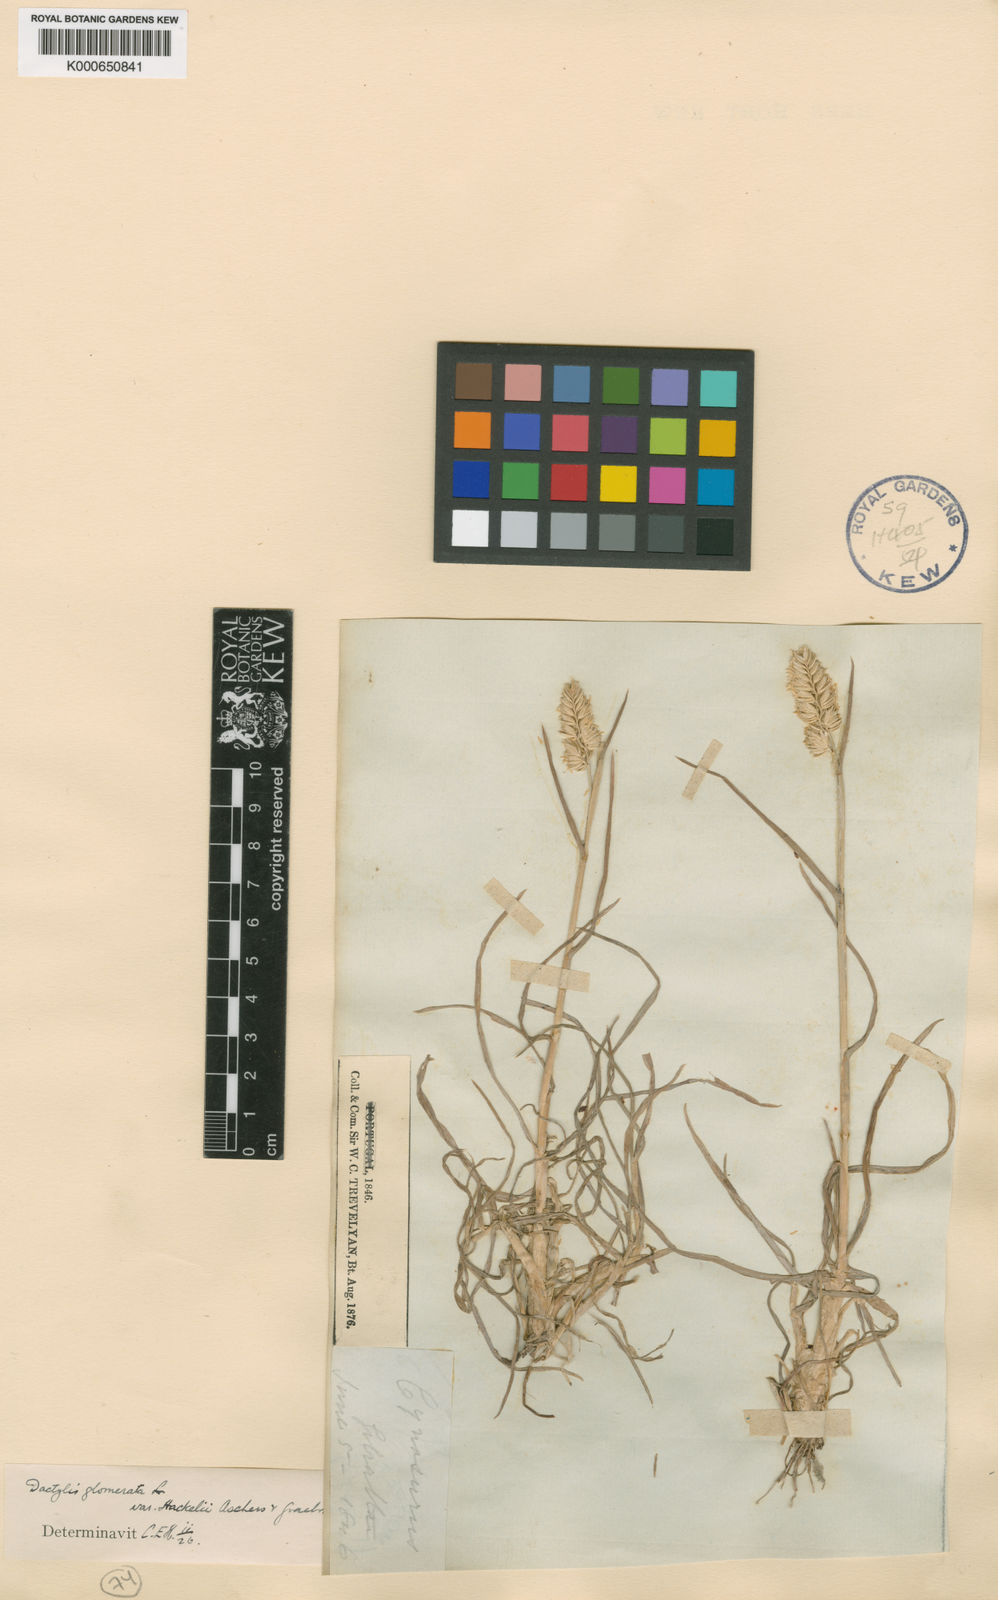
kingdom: Plantae
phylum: Tracheophyta
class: Liliopsida
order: Poales
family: Poaceae
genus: Dactylis
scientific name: Dactylis glomerata
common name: Orchardgrass
